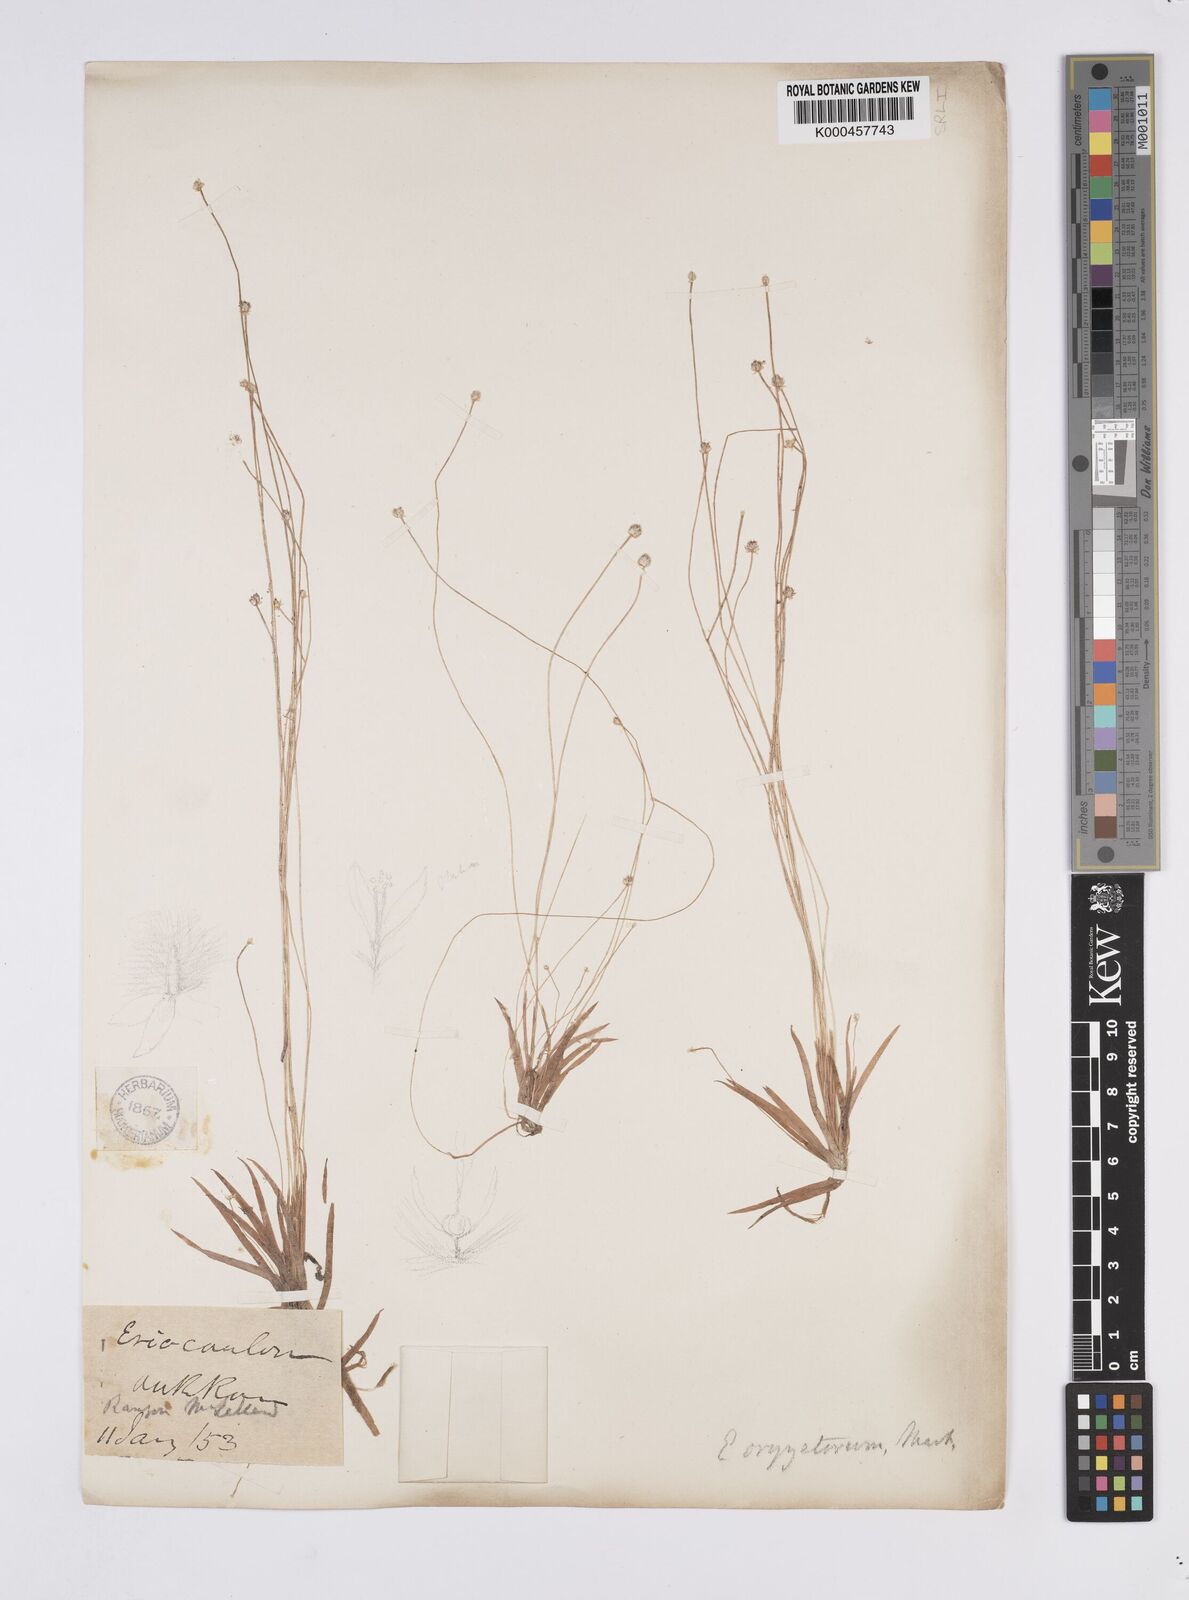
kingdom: Plantae
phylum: Tracheophyta
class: Liliopsida
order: Poales
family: Eriocaulaceae
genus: Eriocaulon
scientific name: Eriocaulon oryzetorum
